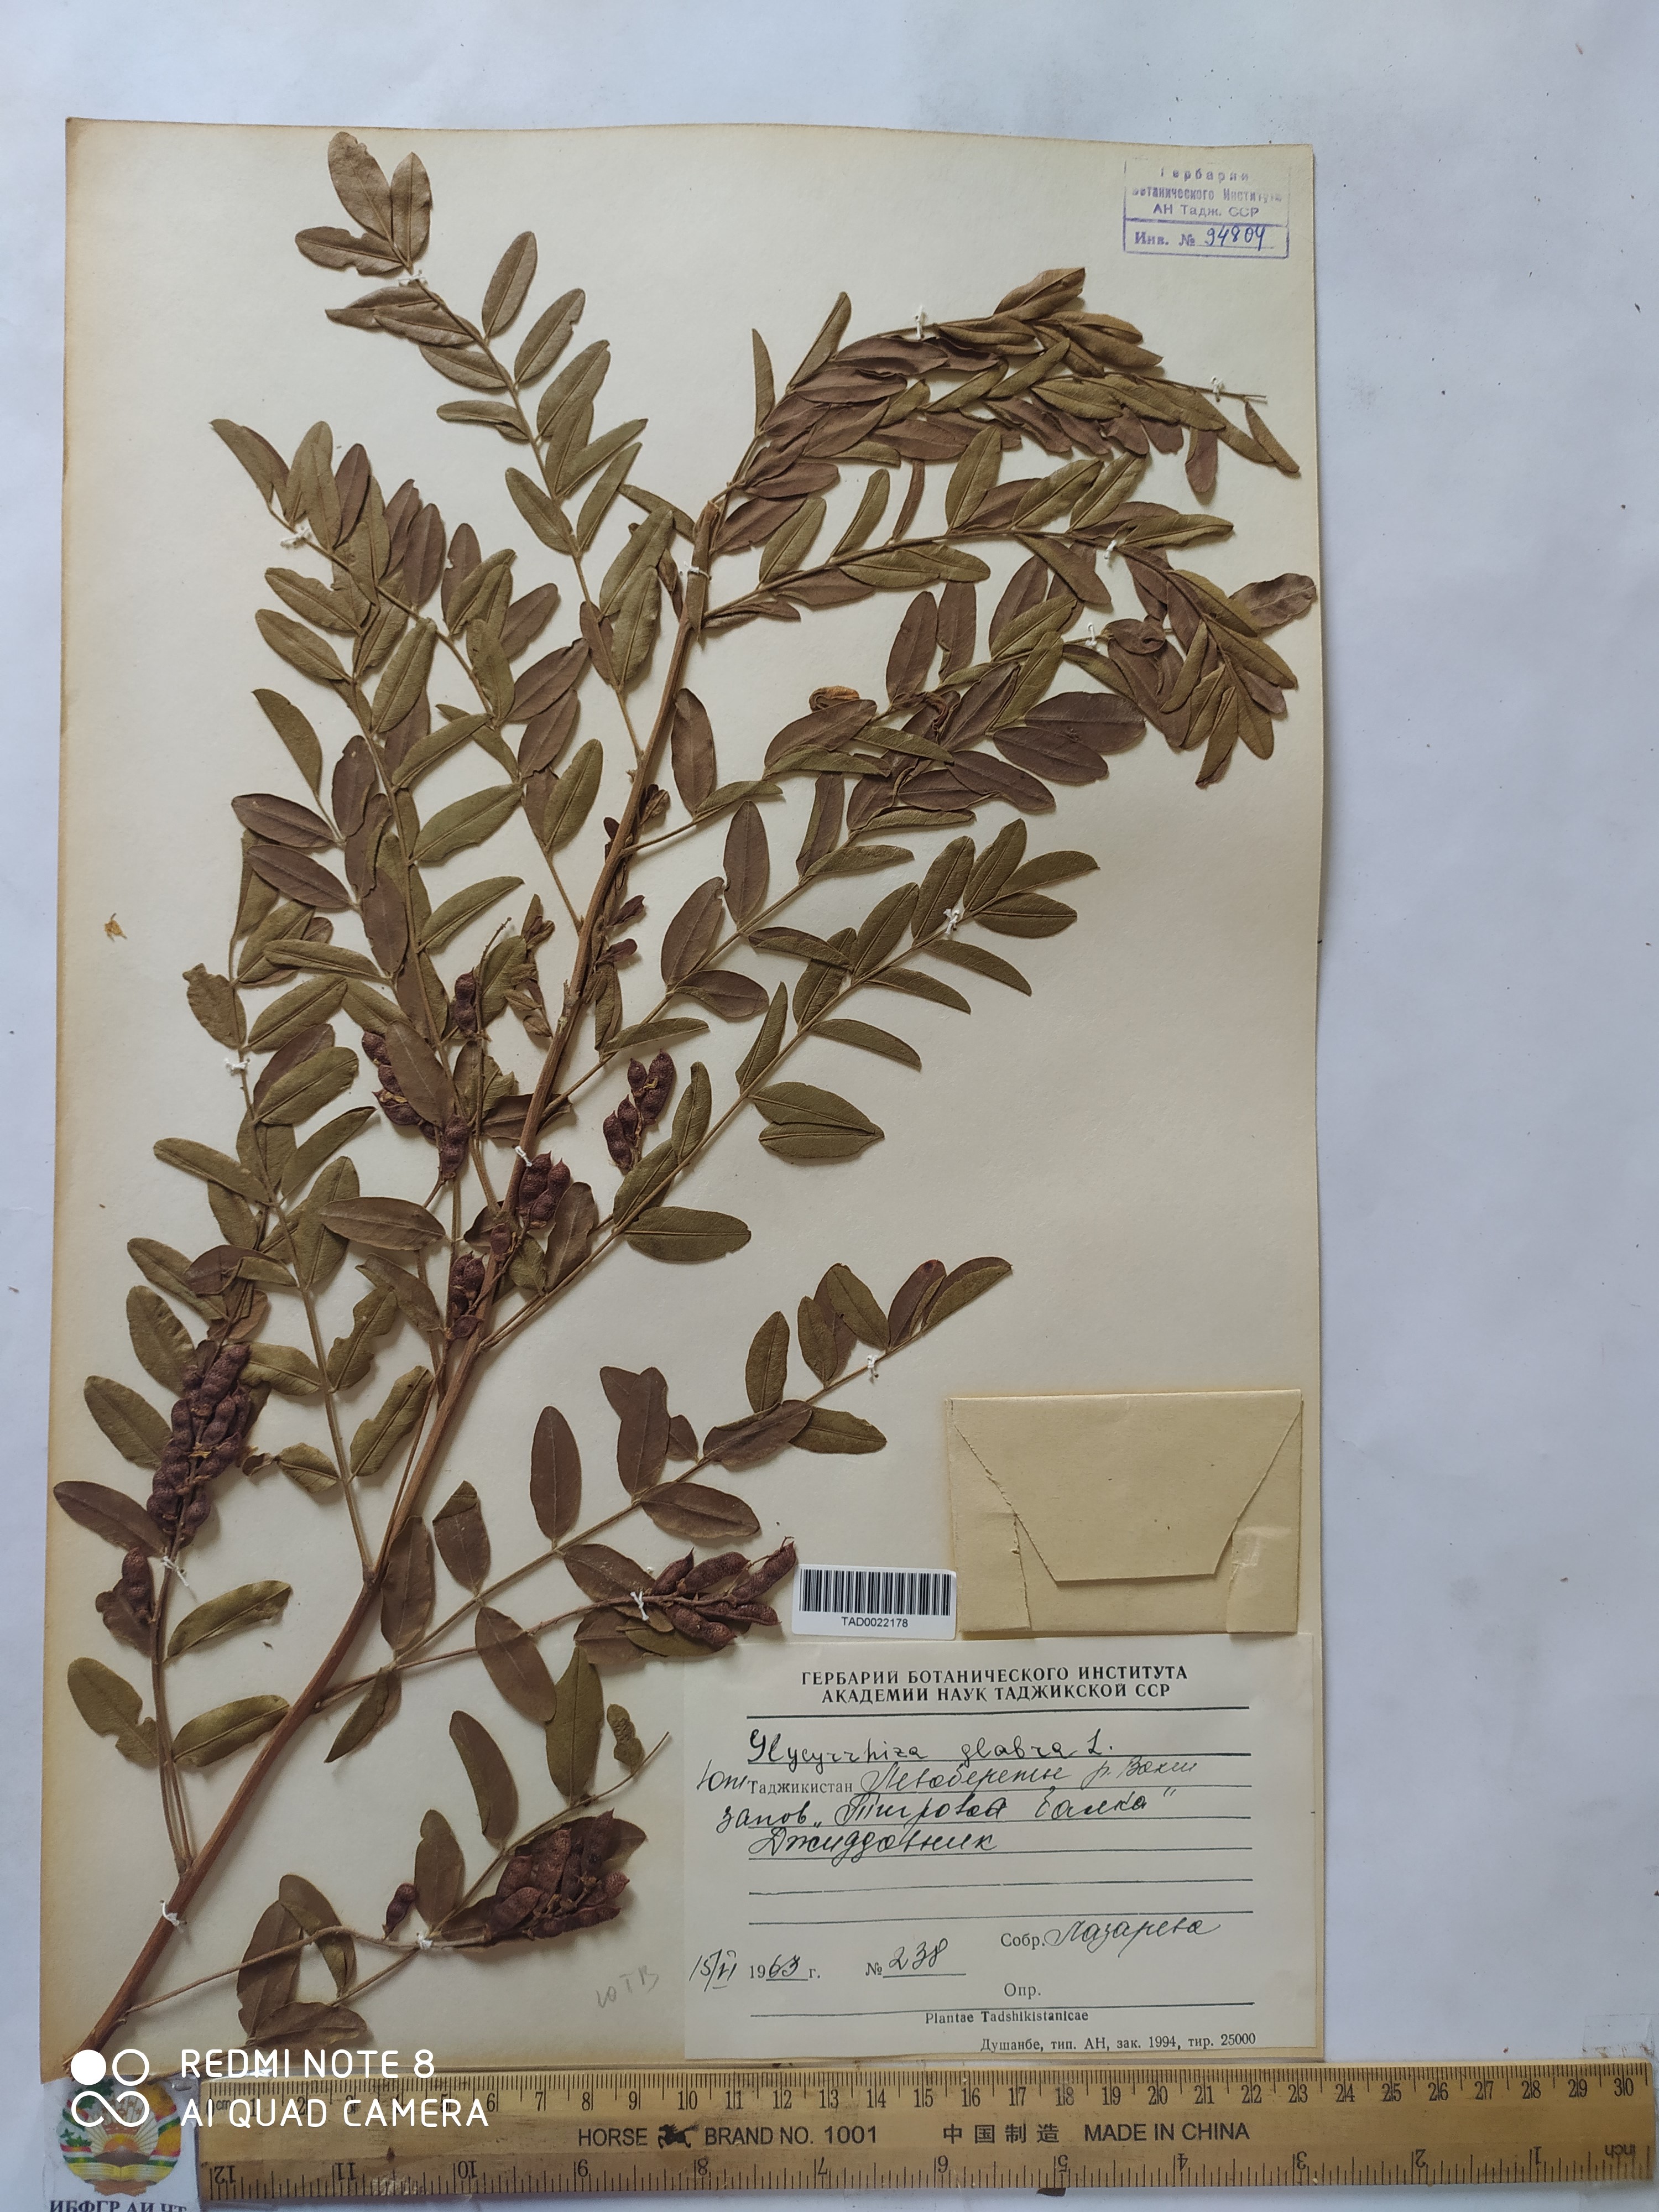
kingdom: Plantae
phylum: Tracheophyta
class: Magnoliopsida
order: Fabales
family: Fabaceae
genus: Glycyrrhiza
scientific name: Glycyrrhiza glabra
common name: Liquorice
